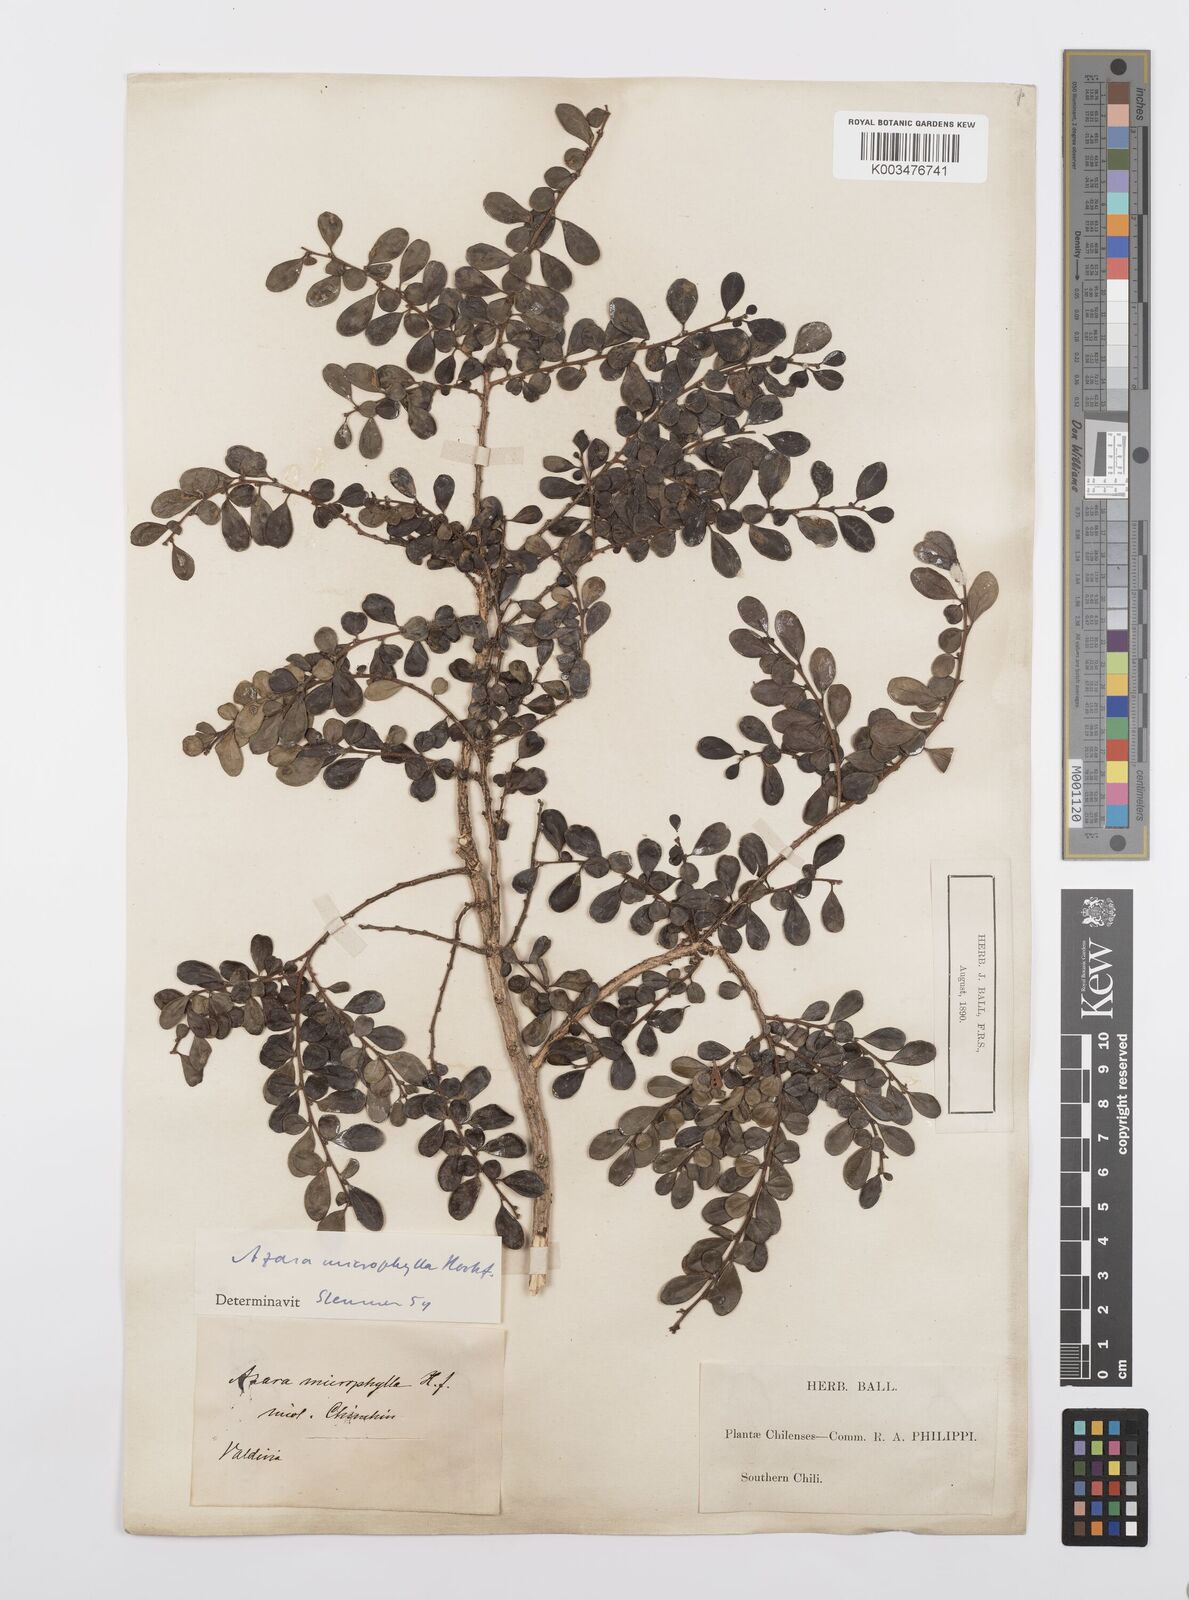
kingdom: Plantae
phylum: Tracheophyta
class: Magnoliopsida
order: Malpighiales
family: Salicaceae
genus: Azara
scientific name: Azara microphylla
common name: Box-leaf azara
